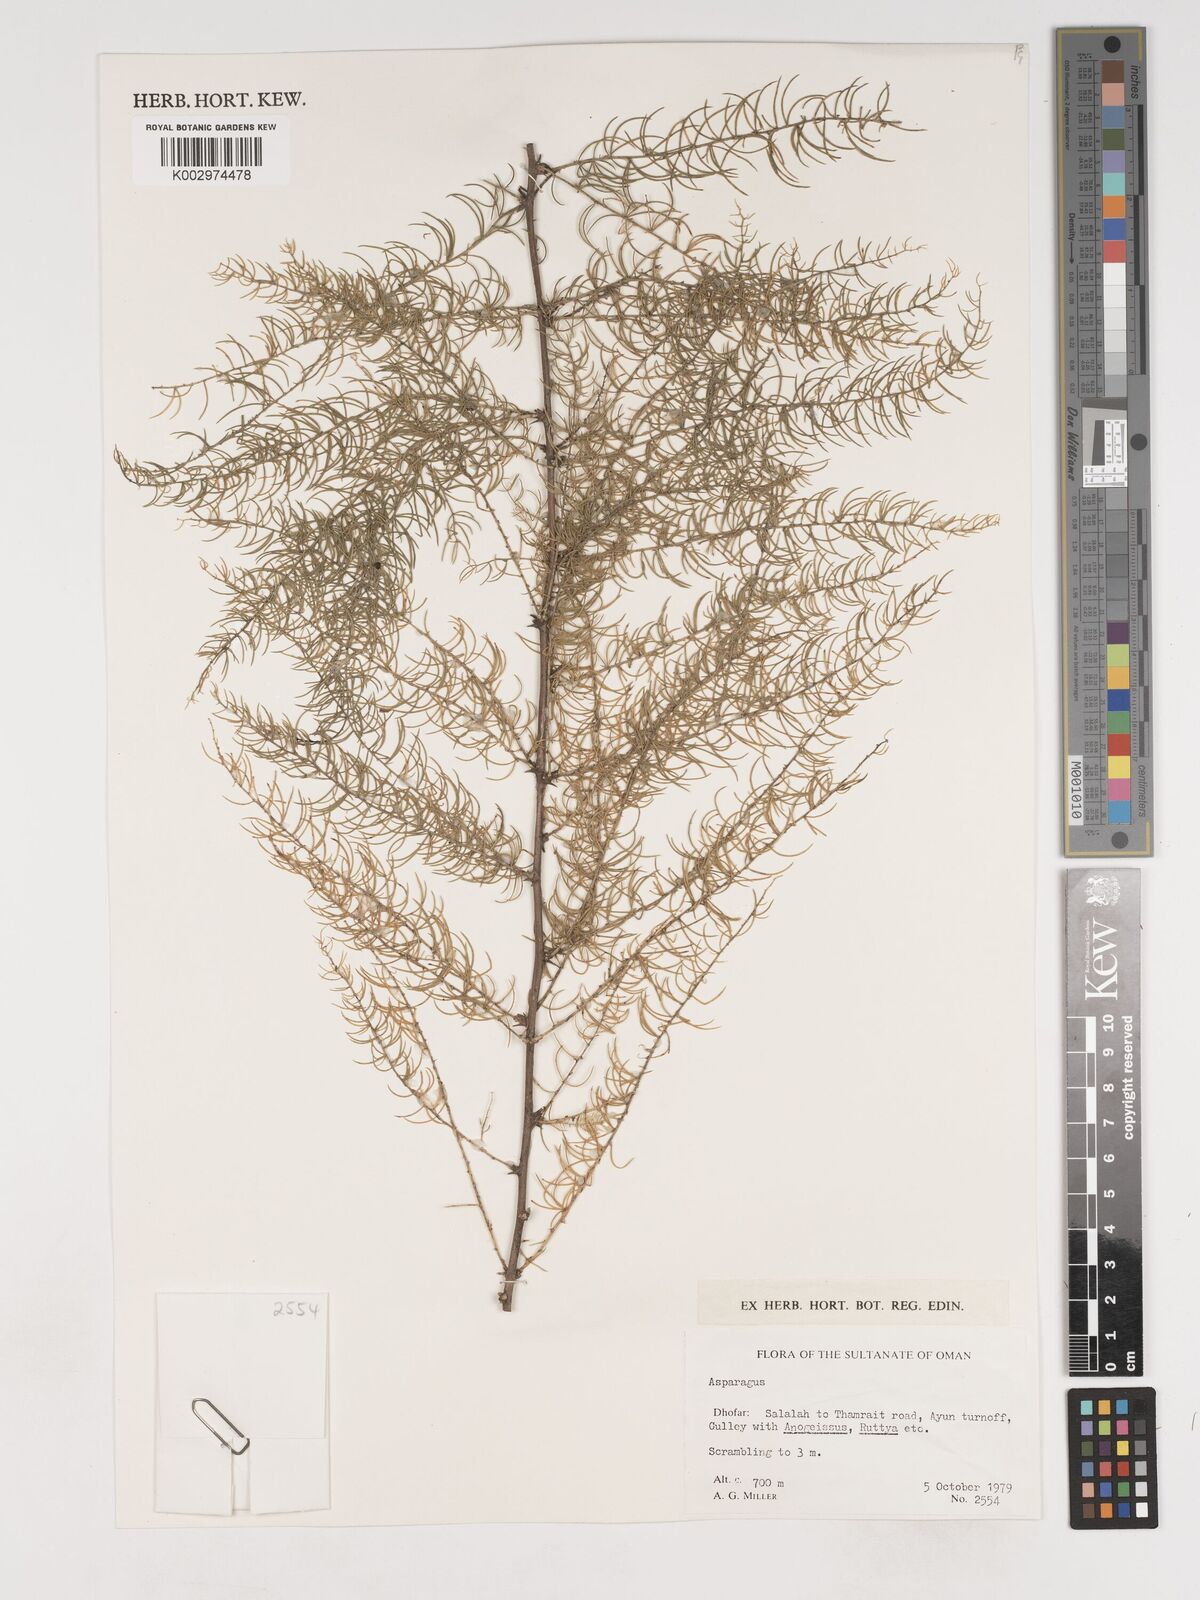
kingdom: Plantae
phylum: Tracheophyta
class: Liliopsida
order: Asparagales
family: Asparagaceae
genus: Asparagus
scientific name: Asparagus
